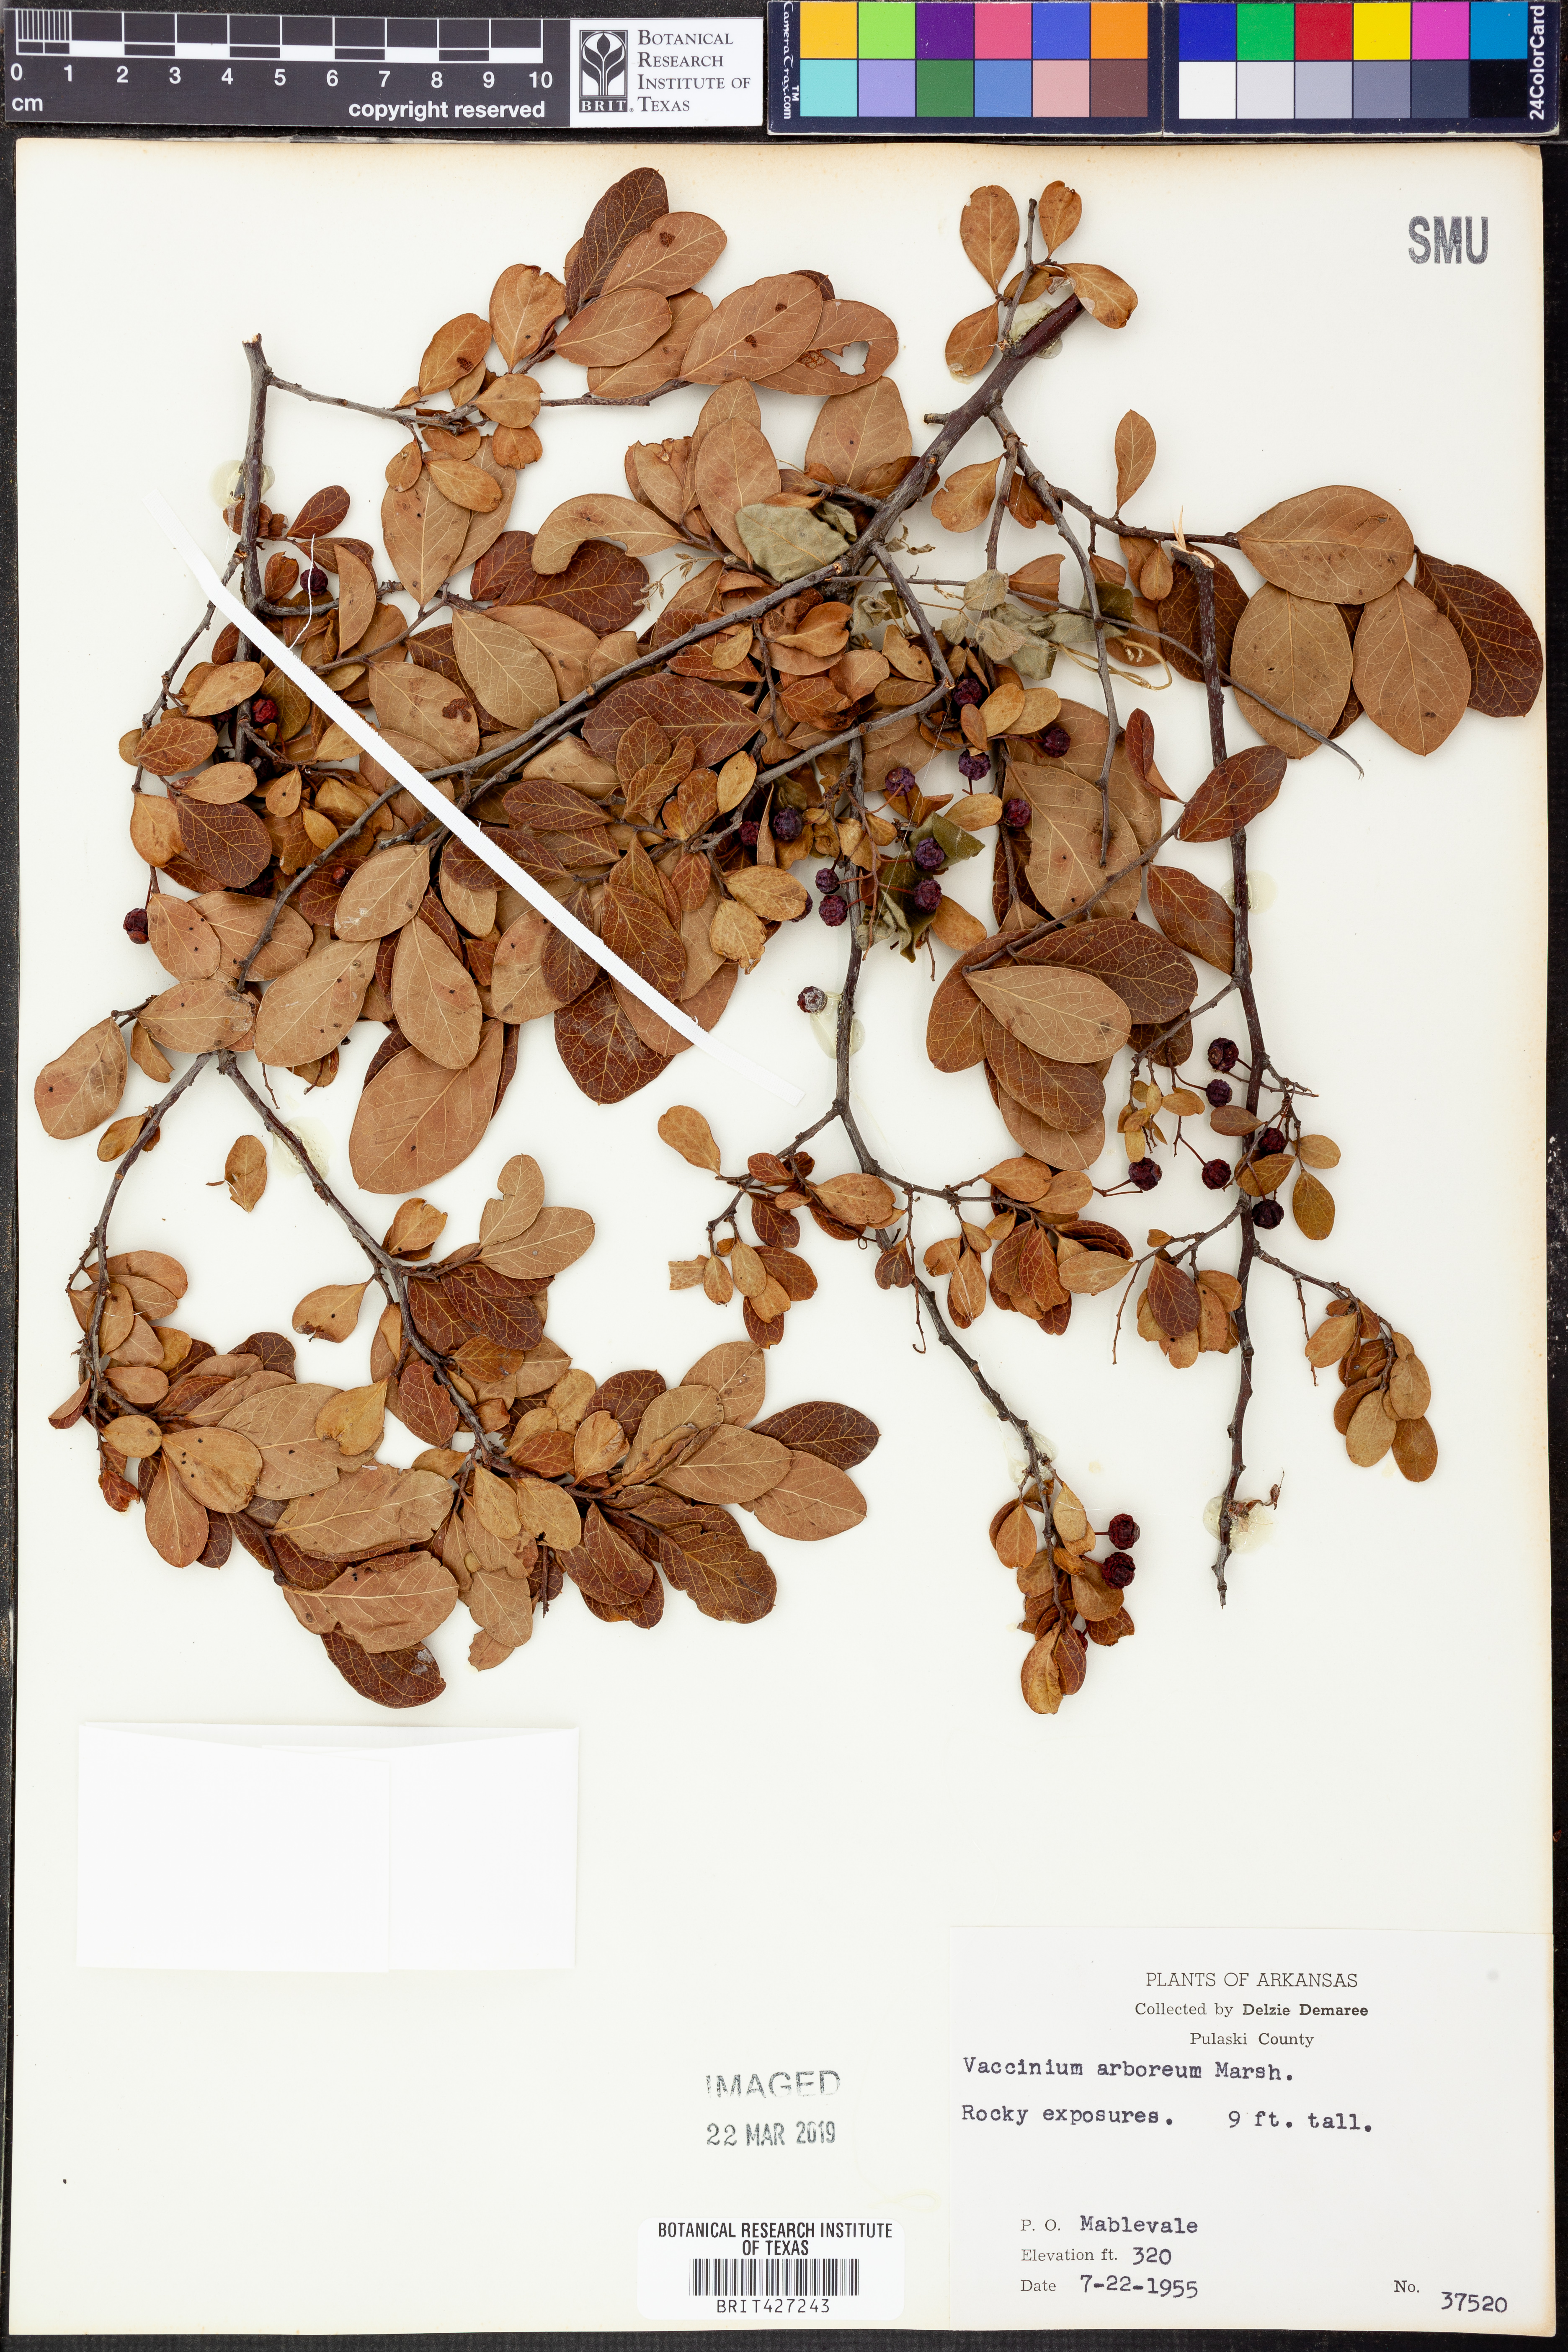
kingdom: Plantae
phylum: Tracheophyta
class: Magnoliopsida
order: Ericales
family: Ericaceae
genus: Vaccinium
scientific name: Vaccinium arboreum
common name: Farkleberry
